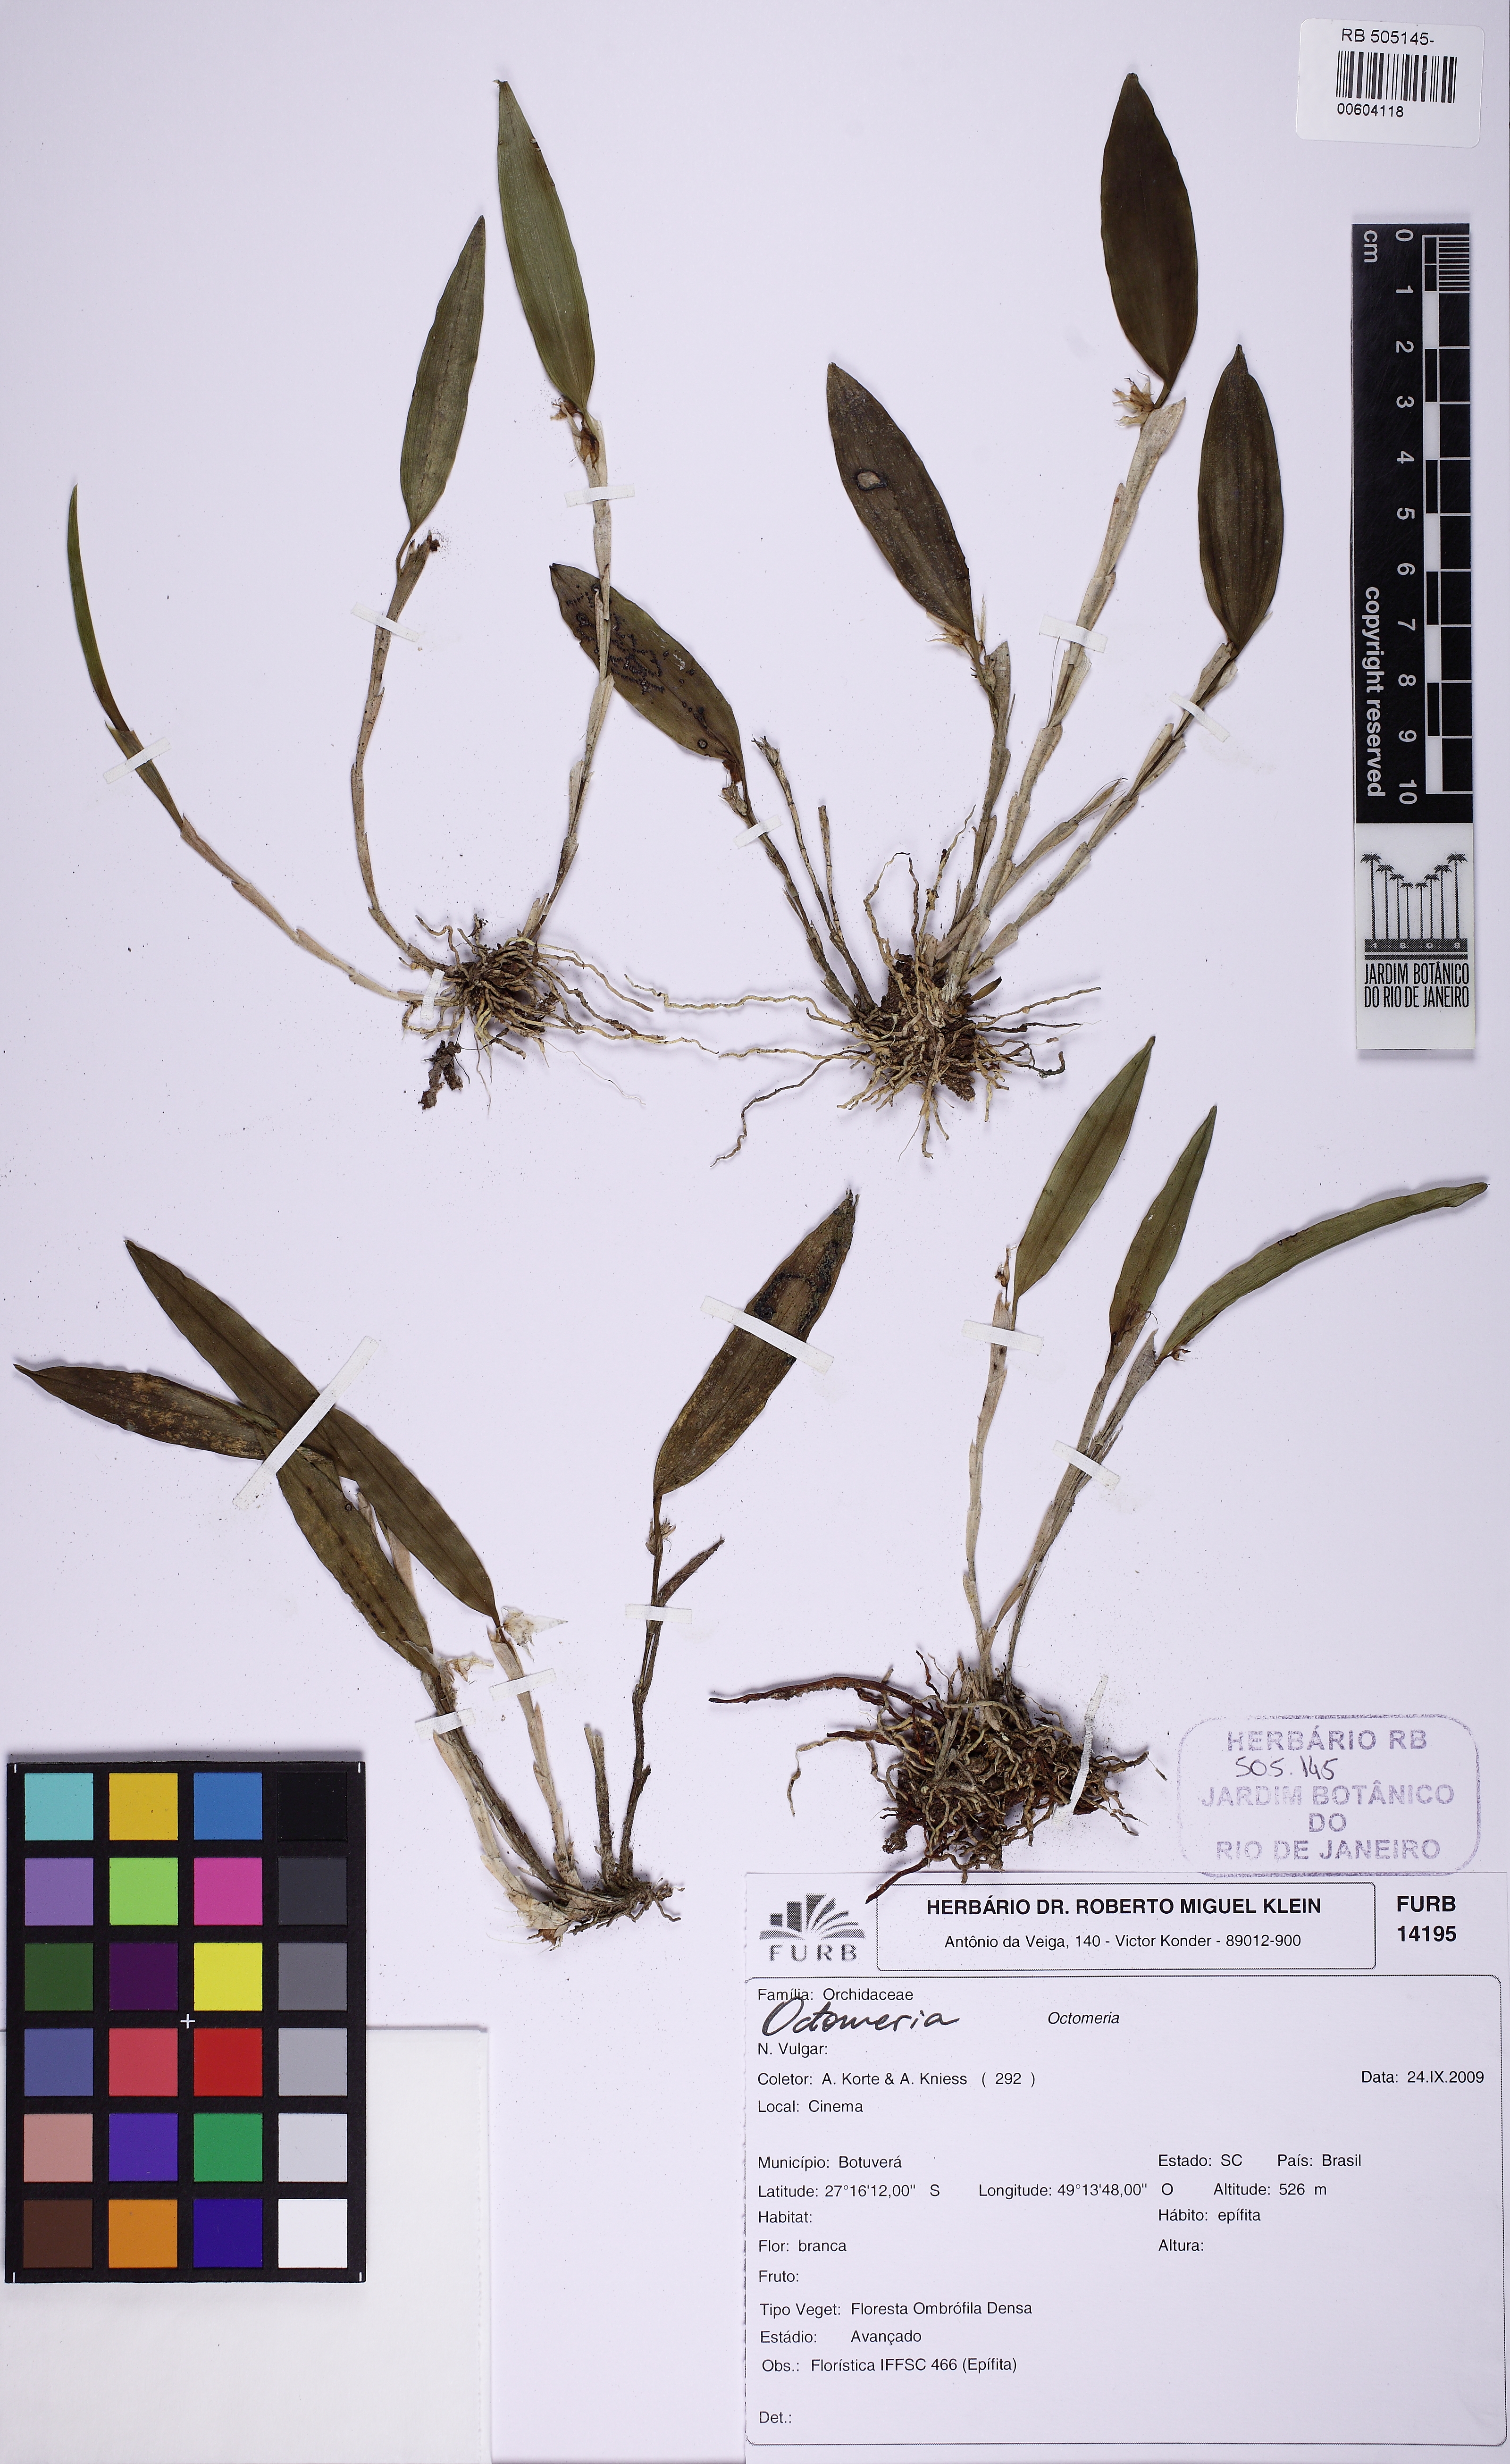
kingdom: Plantae
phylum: Tracheophyta
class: Liliopsida
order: Asparagales
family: Orchidaceae
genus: Octomeria
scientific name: Octomeria
